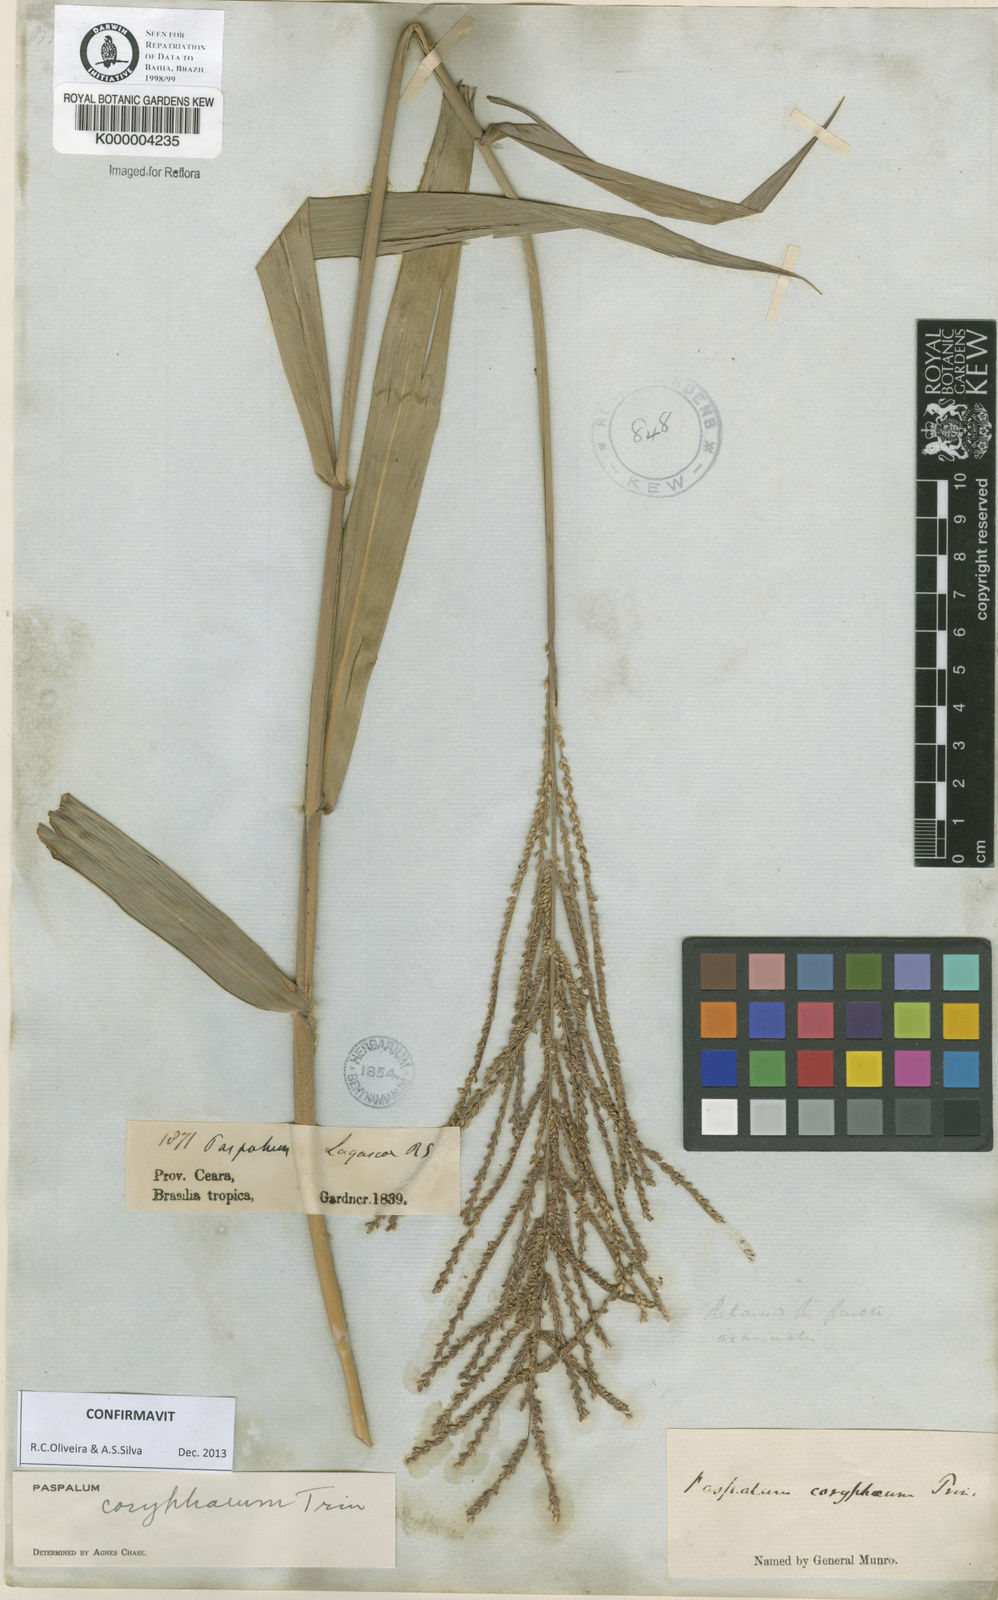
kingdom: Plantae
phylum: Tracheophyta
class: Liliopsida
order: Poales
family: Poaceae
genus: Paspalum
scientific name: Paspalum coryphaeum
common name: Emperor crowngrass
